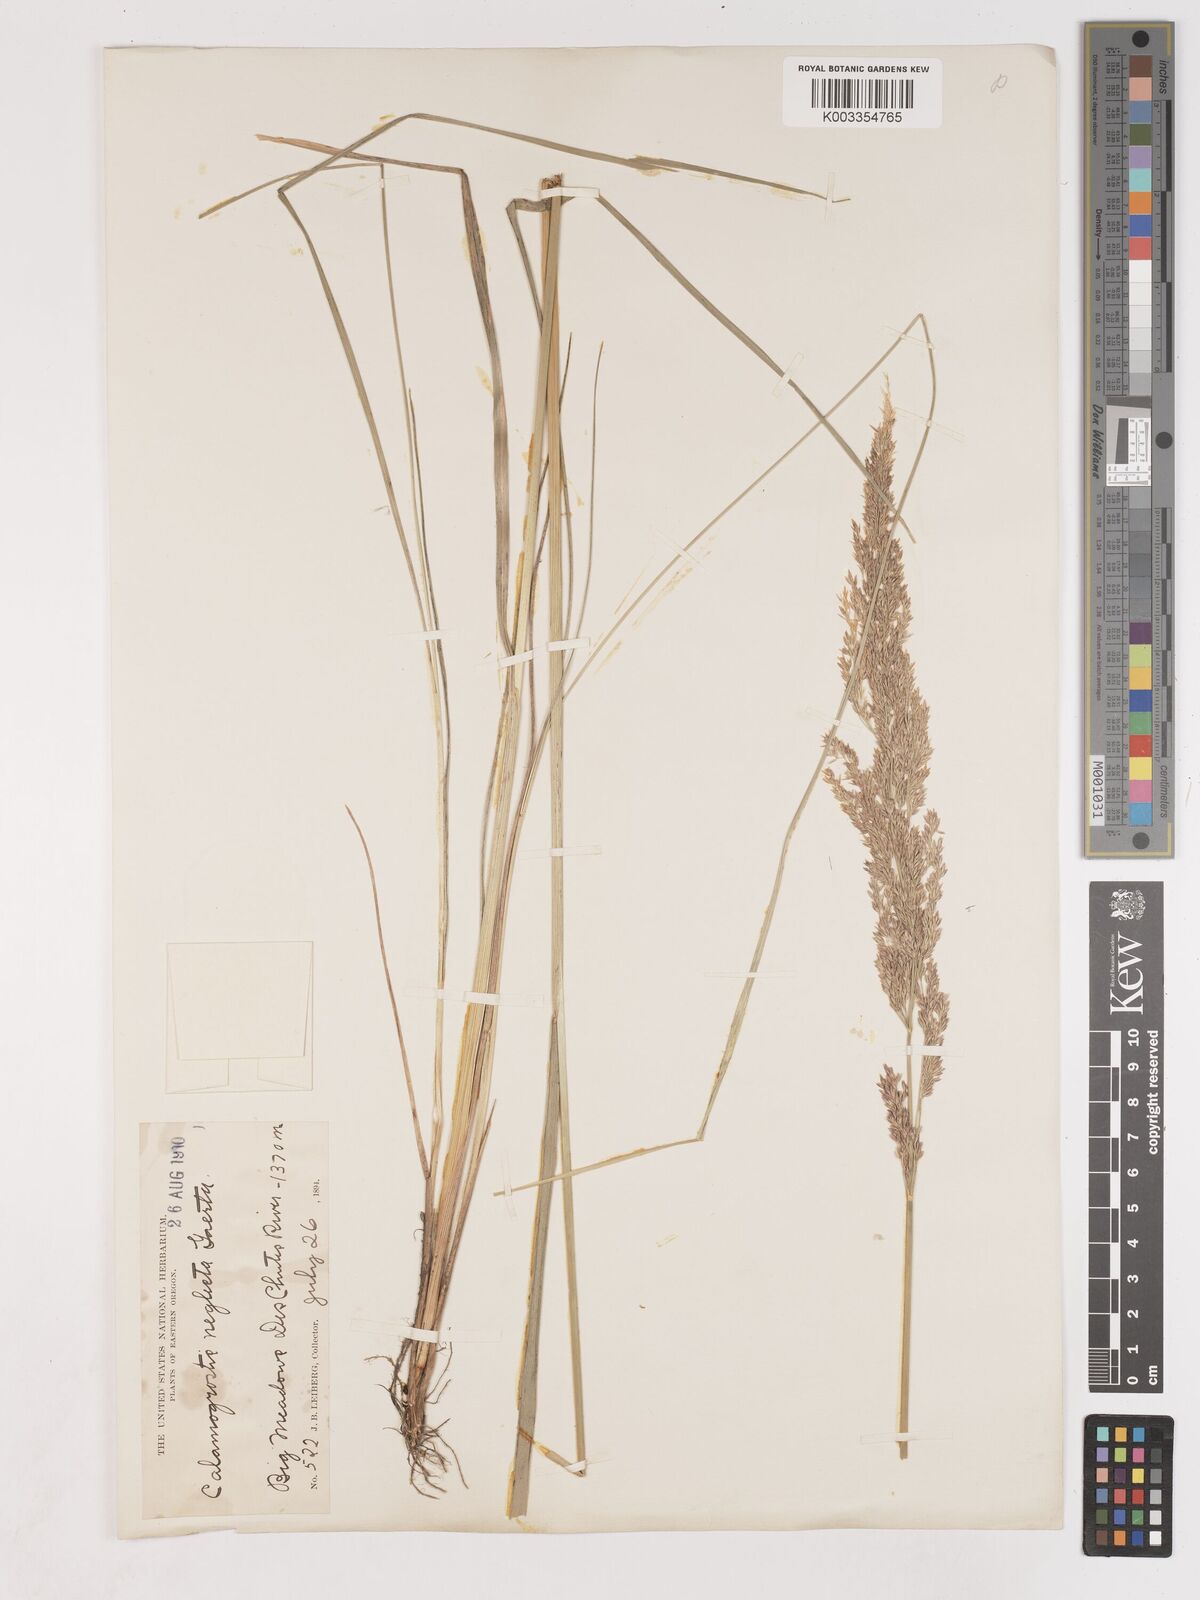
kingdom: Plantae
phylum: Tracheophyta
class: Liliopsida
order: Poales
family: Poaceae
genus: Cinnagrostis
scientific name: Cinnagrostis recta
